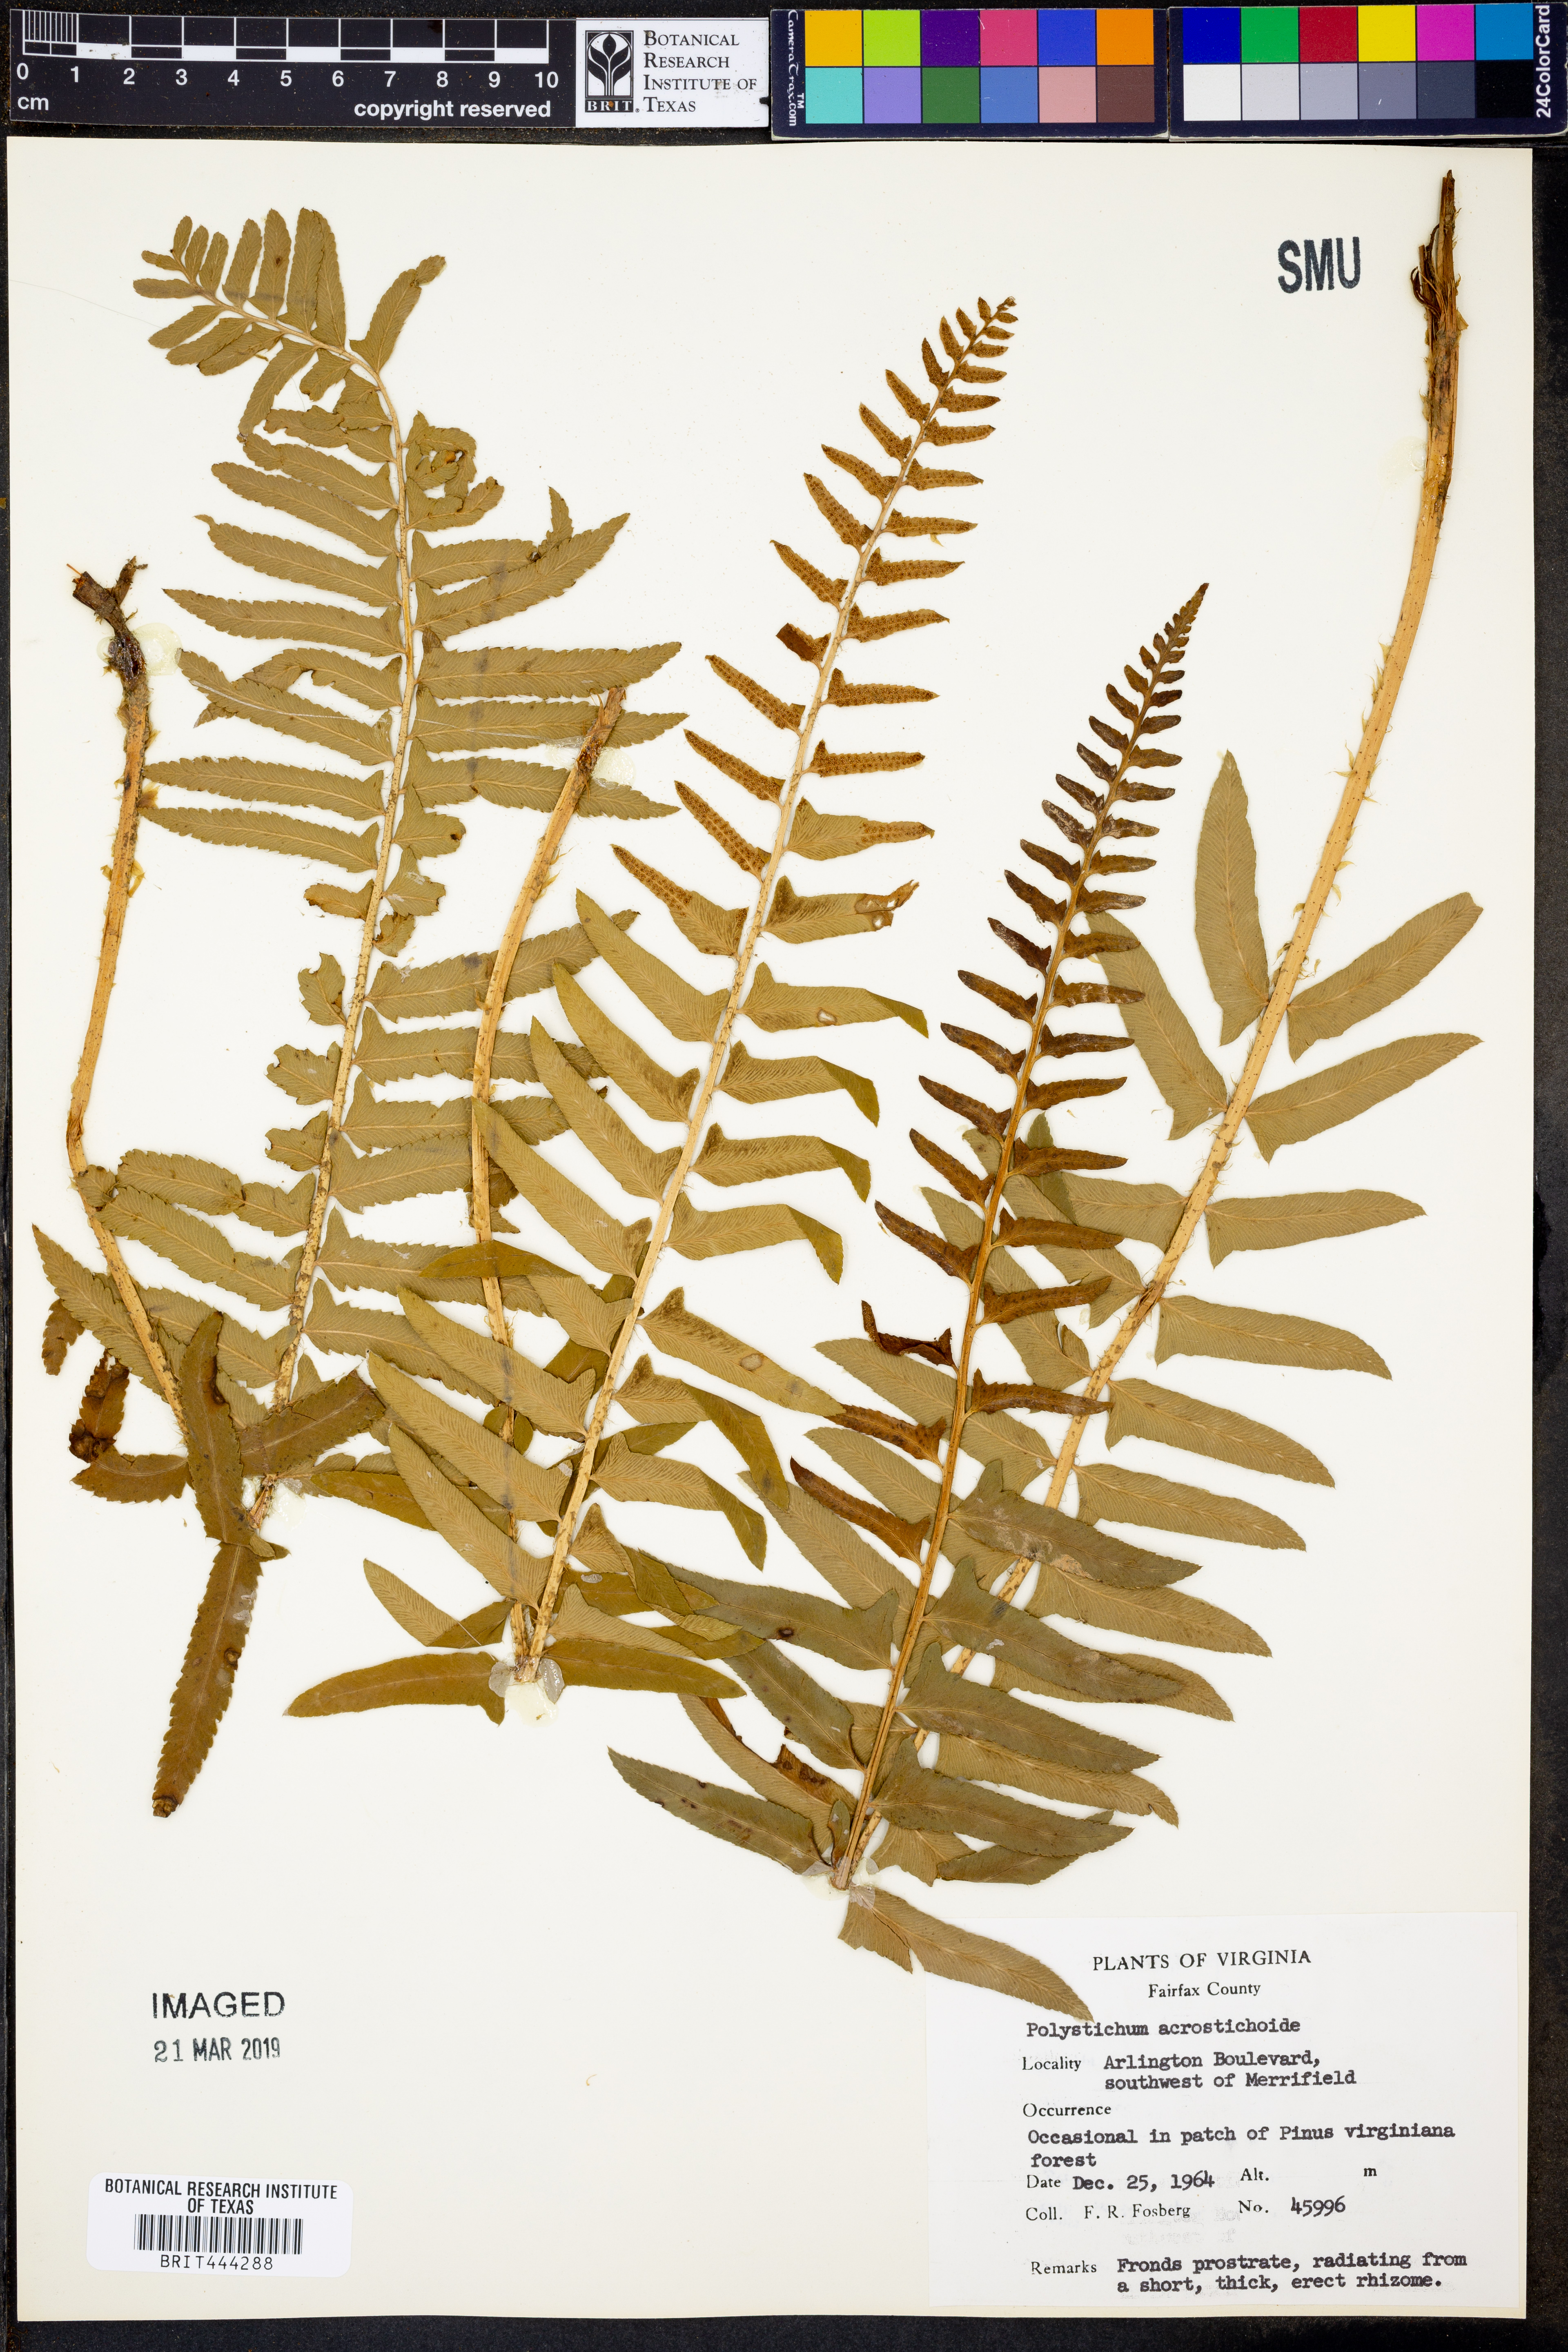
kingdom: Plantae
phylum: Tracheophyta
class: Polypodiopsida
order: Polypodiales
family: Dryopteridaceae
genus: Polystichum
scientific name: Polystichum acrostichoides
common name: Christmas fern
